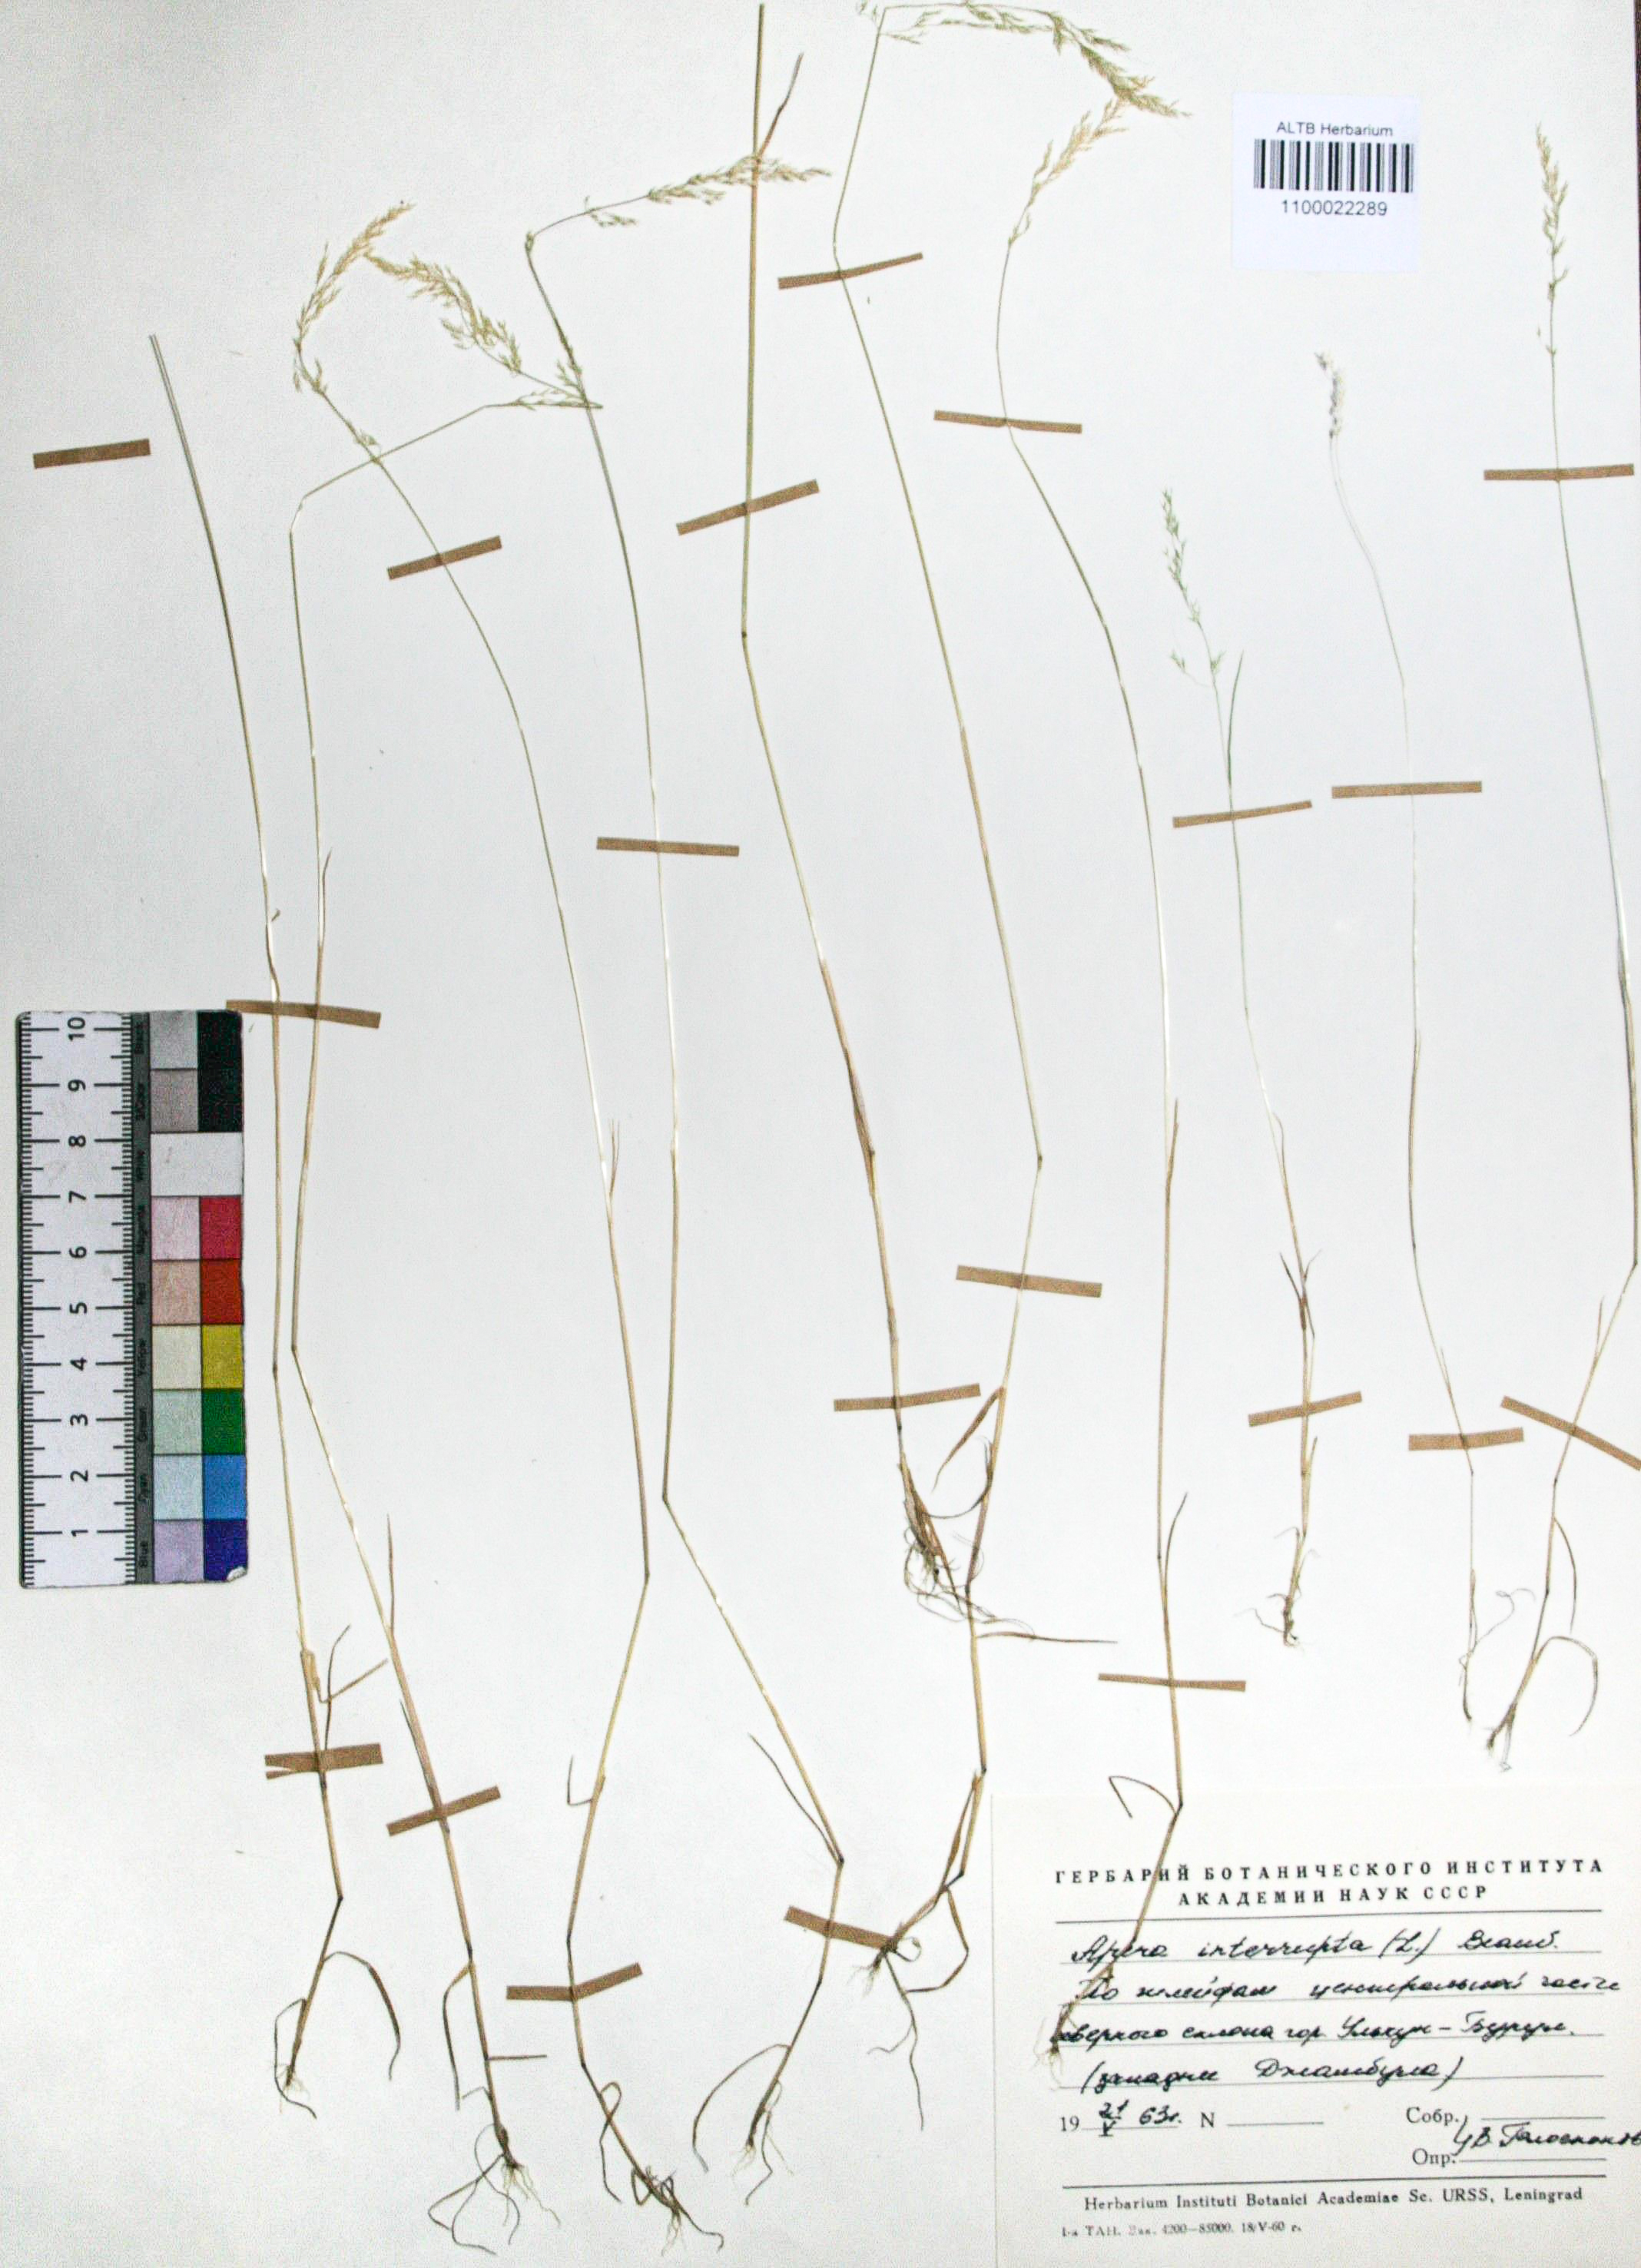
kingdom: Plantae
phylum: Tracheophyta
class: Liliopsida
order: Poales
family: Poaceae
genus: Apera
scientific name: Apera interrupta
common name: Dense silky-bent
